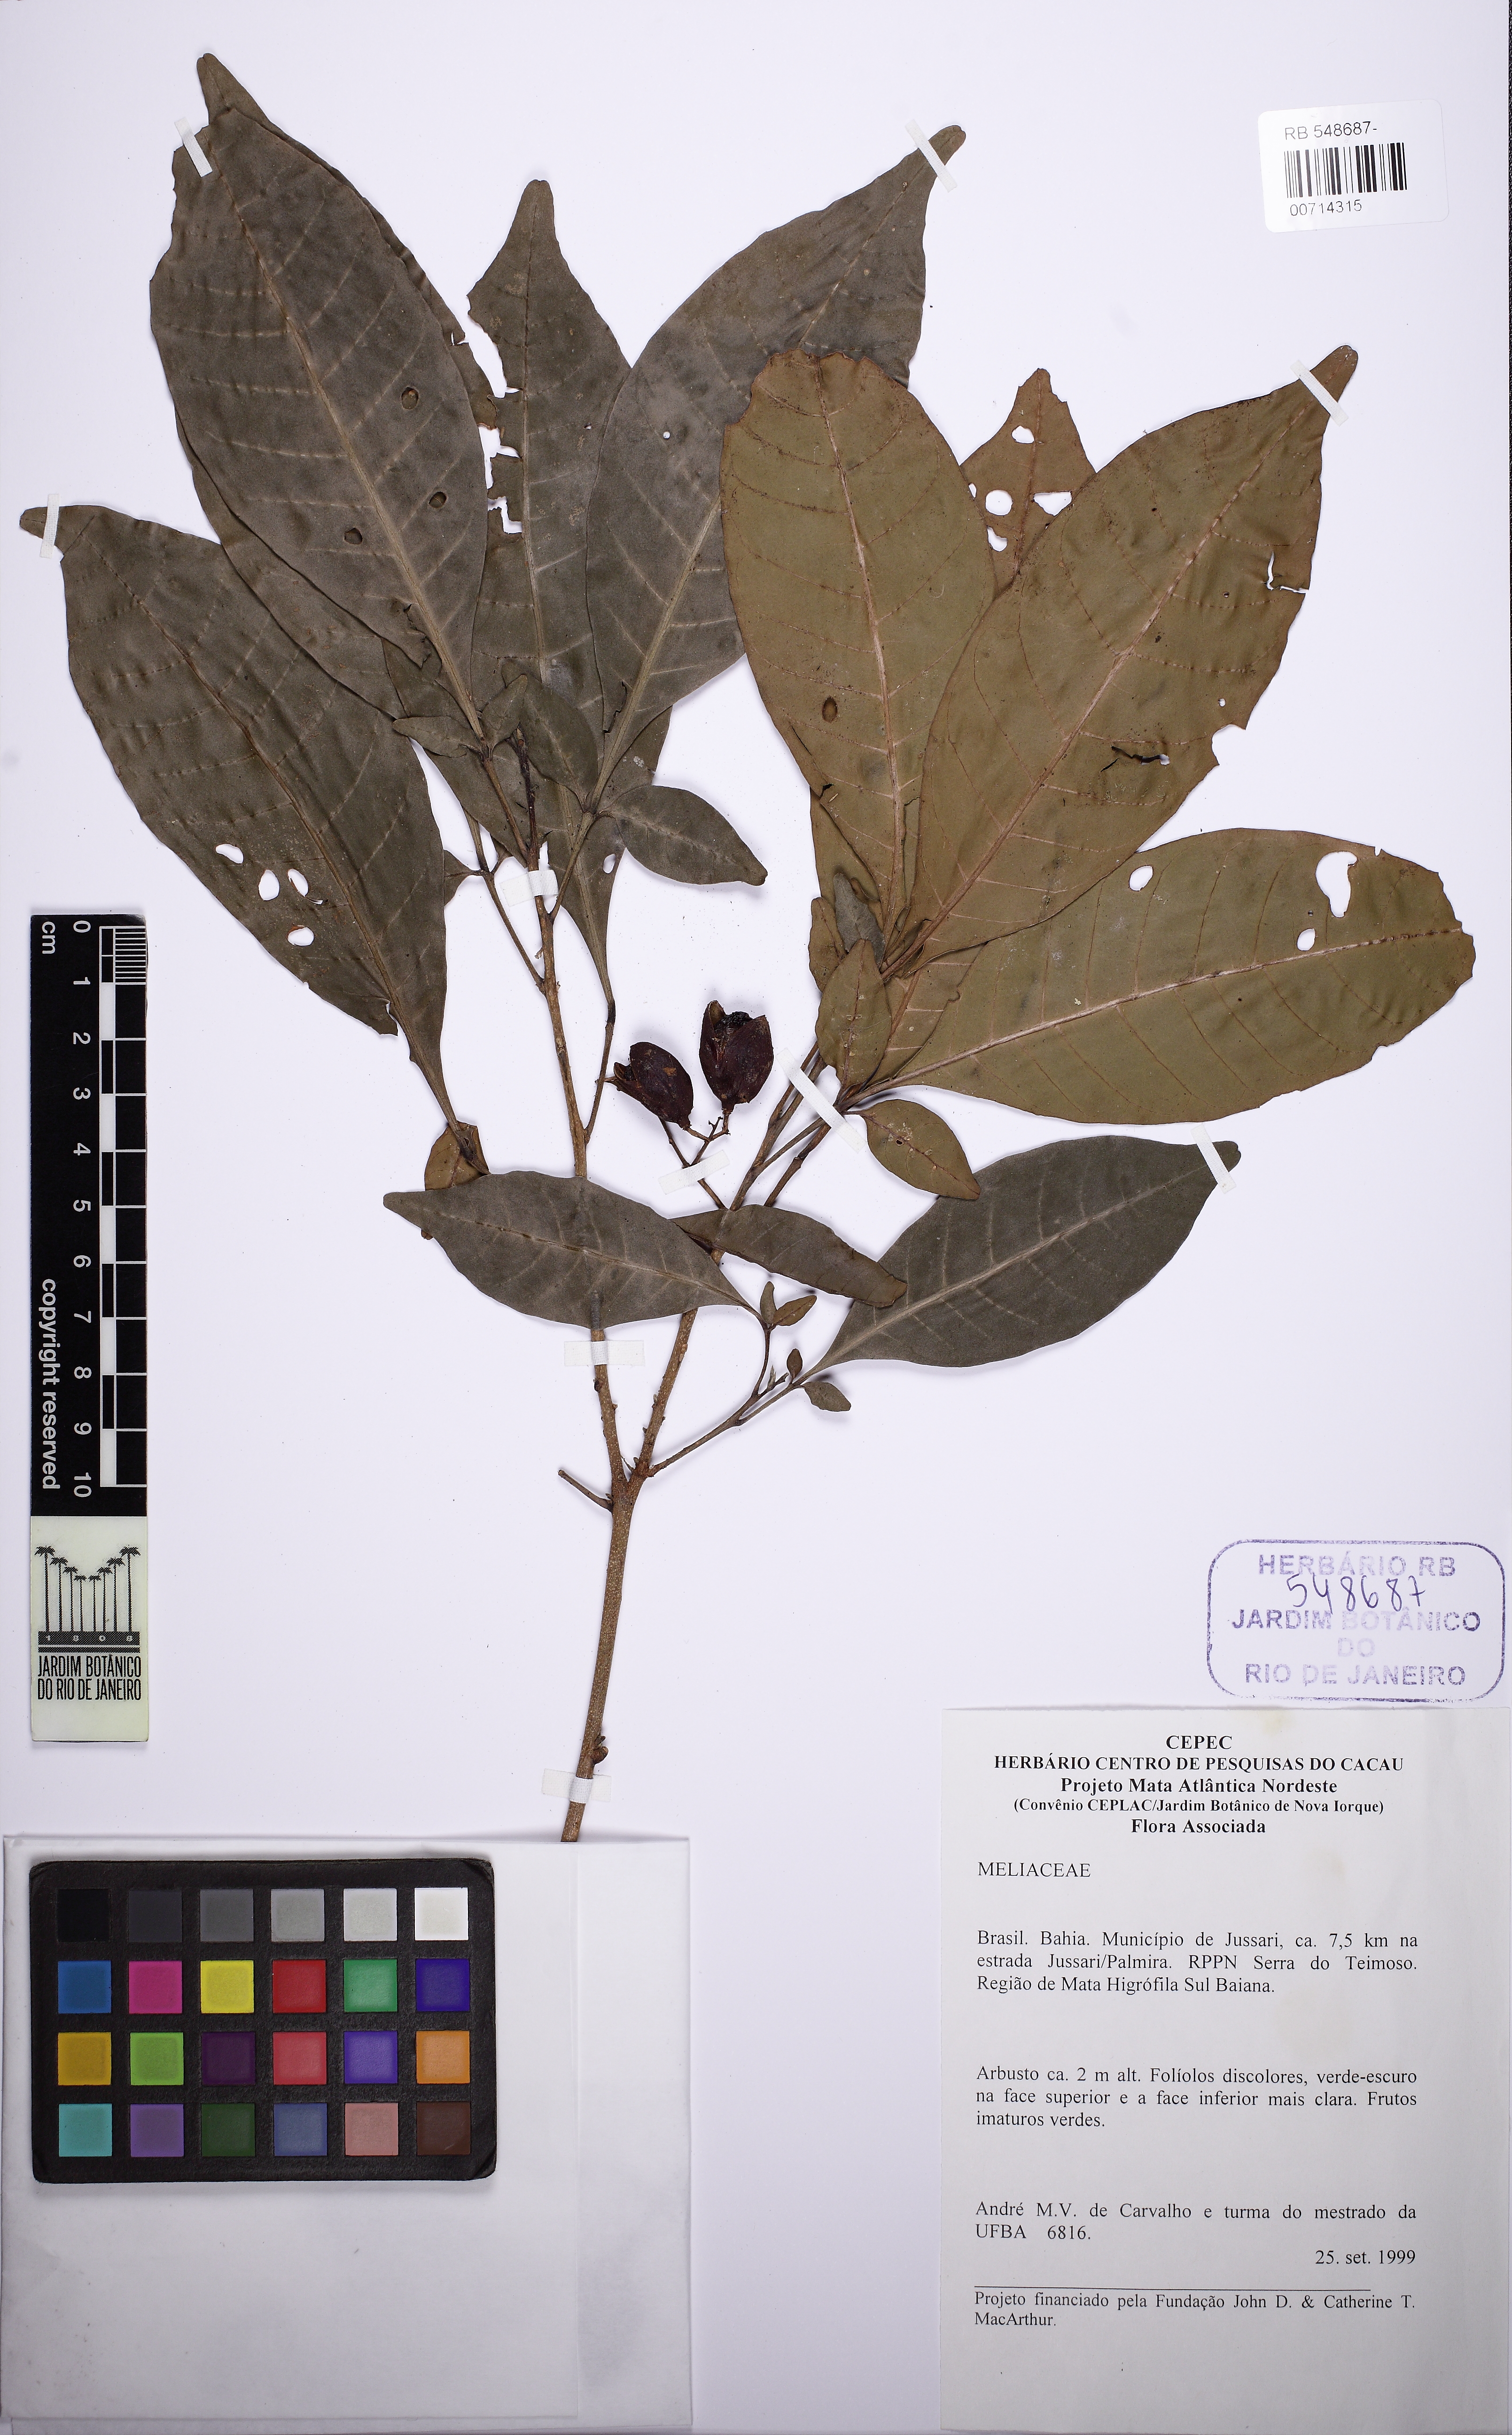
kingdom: Plantae
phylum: Tracheophyta
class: Magnoliopsida
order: Sapindales
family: Meliaceae
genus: Trichilia
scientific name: Trichilia elegans
